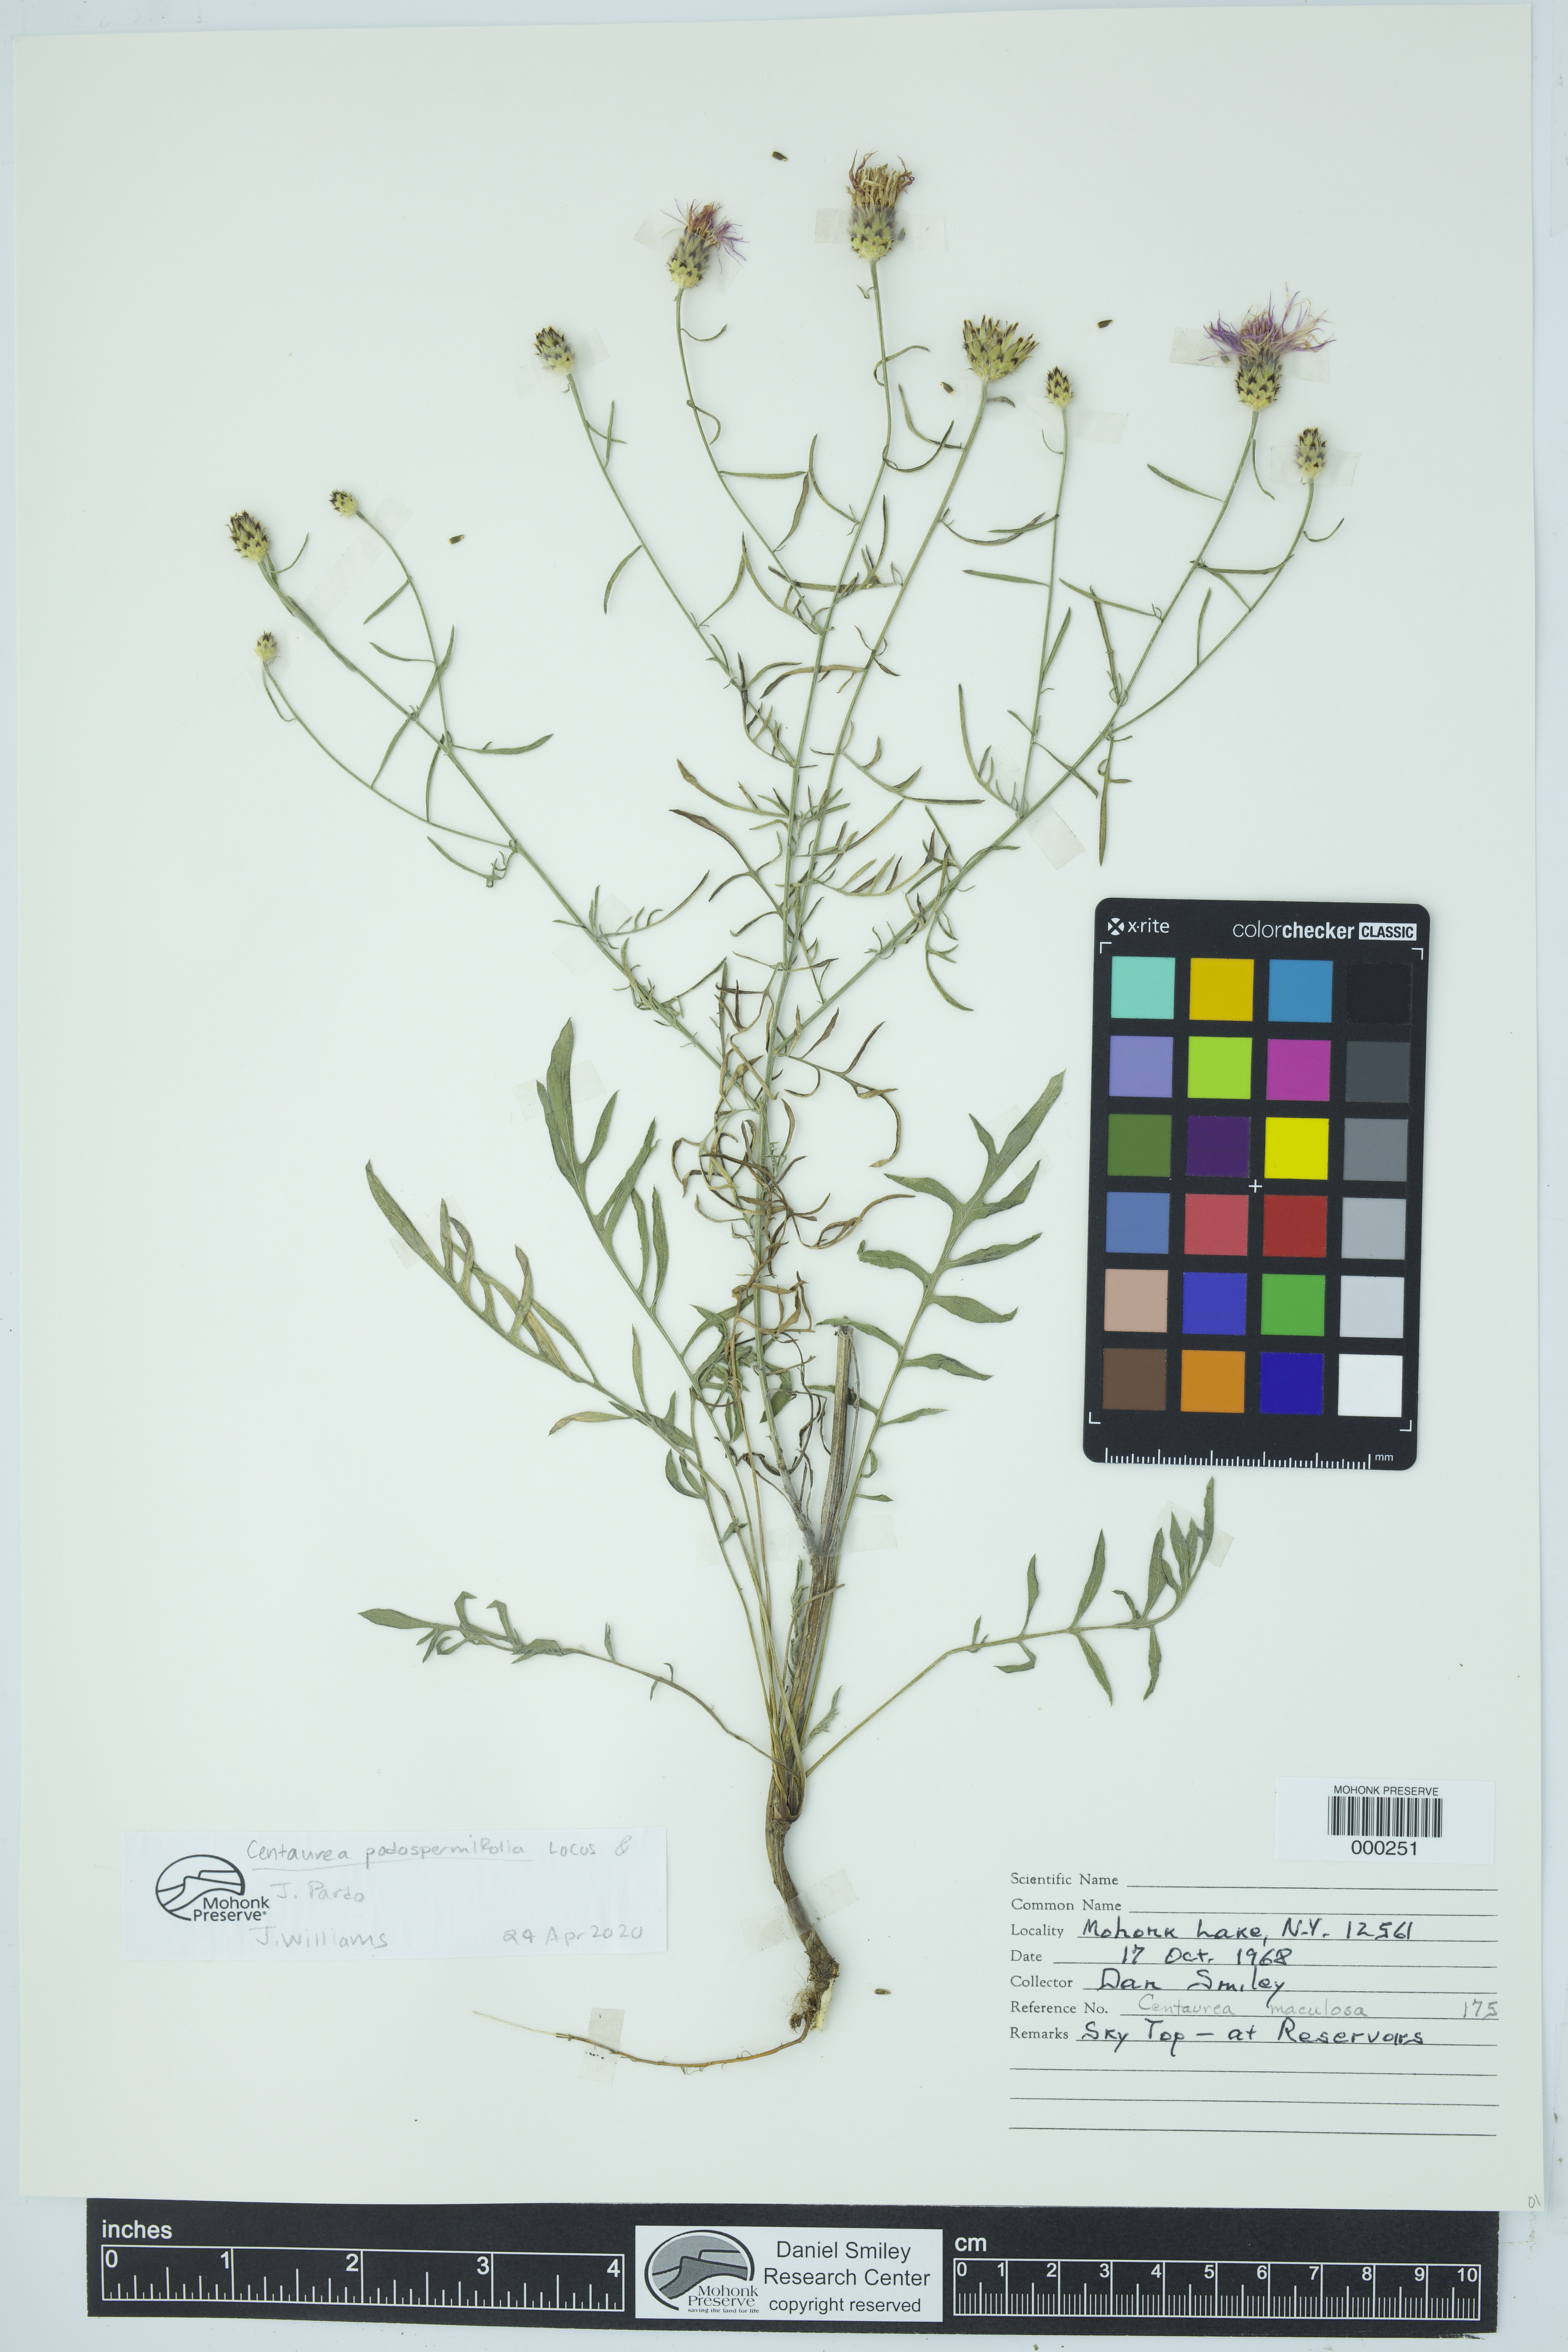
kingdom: Plantae
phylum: Tracheophyta
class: Magnoliopsida
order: Asterales
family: Asteraceae
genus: Centaurea
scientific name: Centaurea
